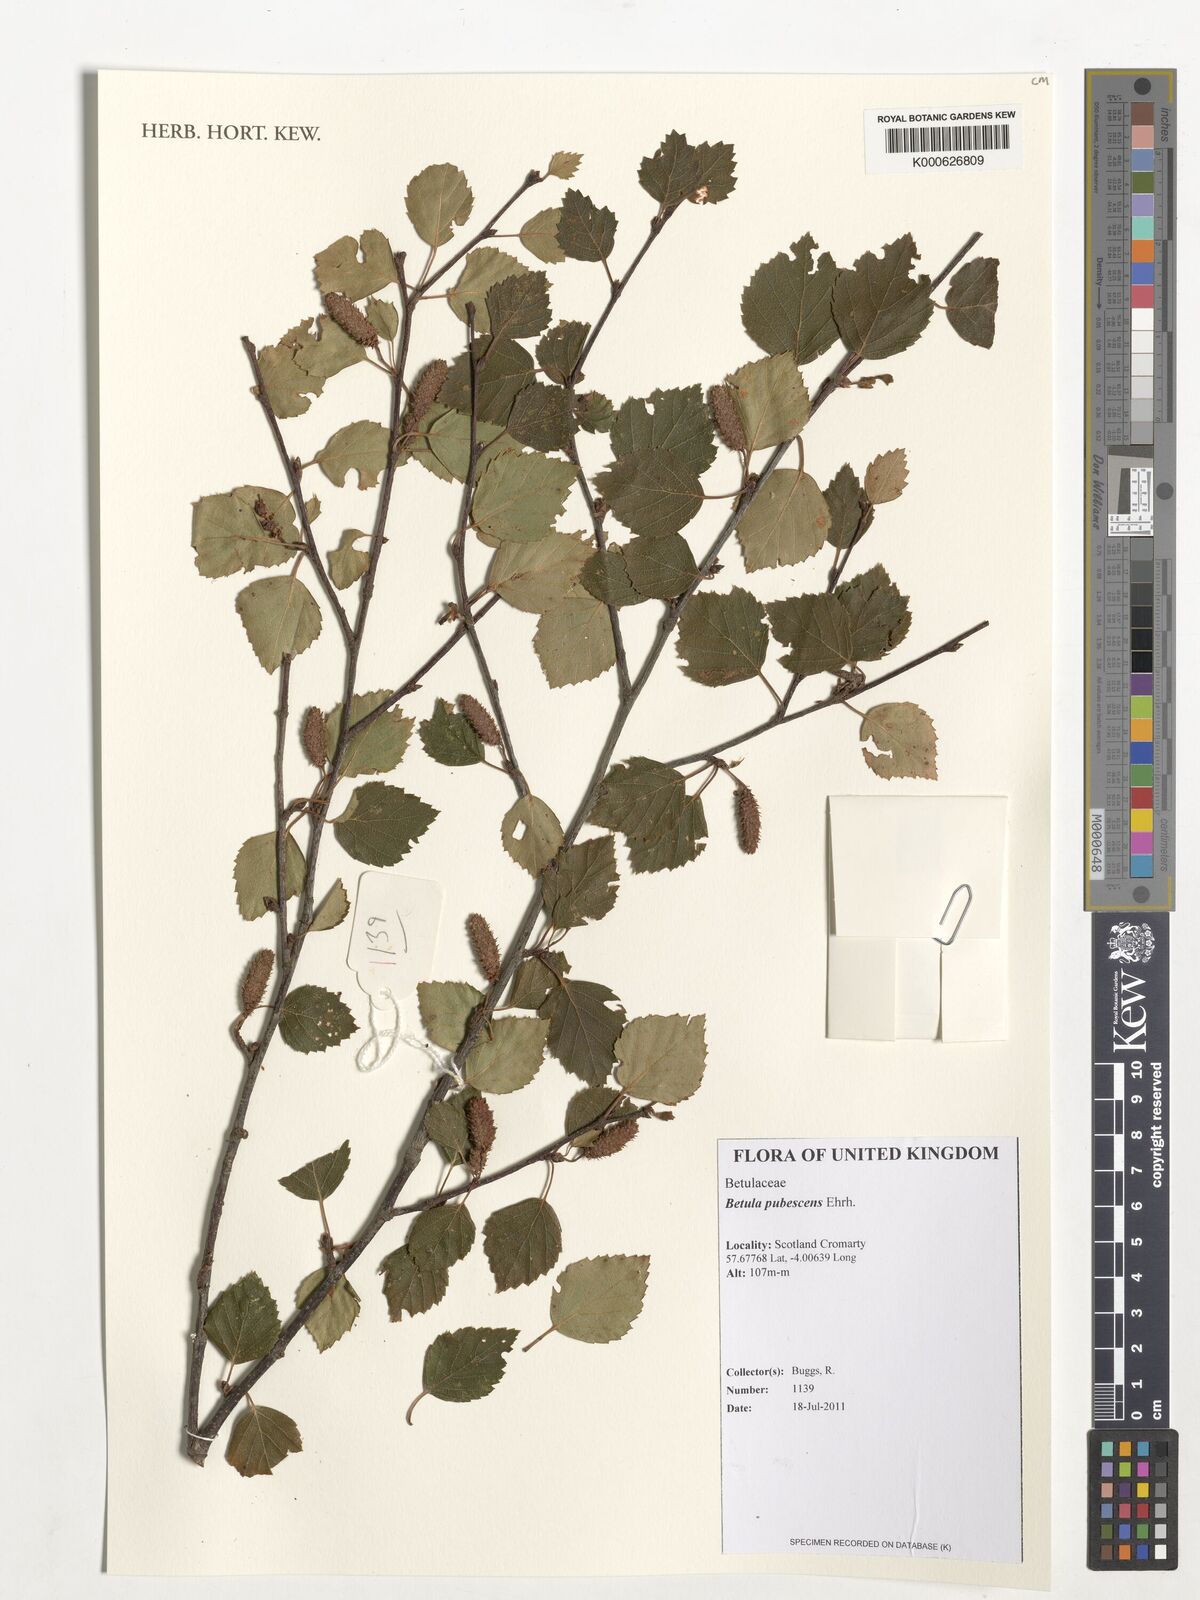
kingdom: Plantae
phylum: Tracheophyta
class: Magnoliopsida
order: Fagales
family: Betulaceae
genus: Betula
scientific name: Betula pubescens
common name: Downy birch
